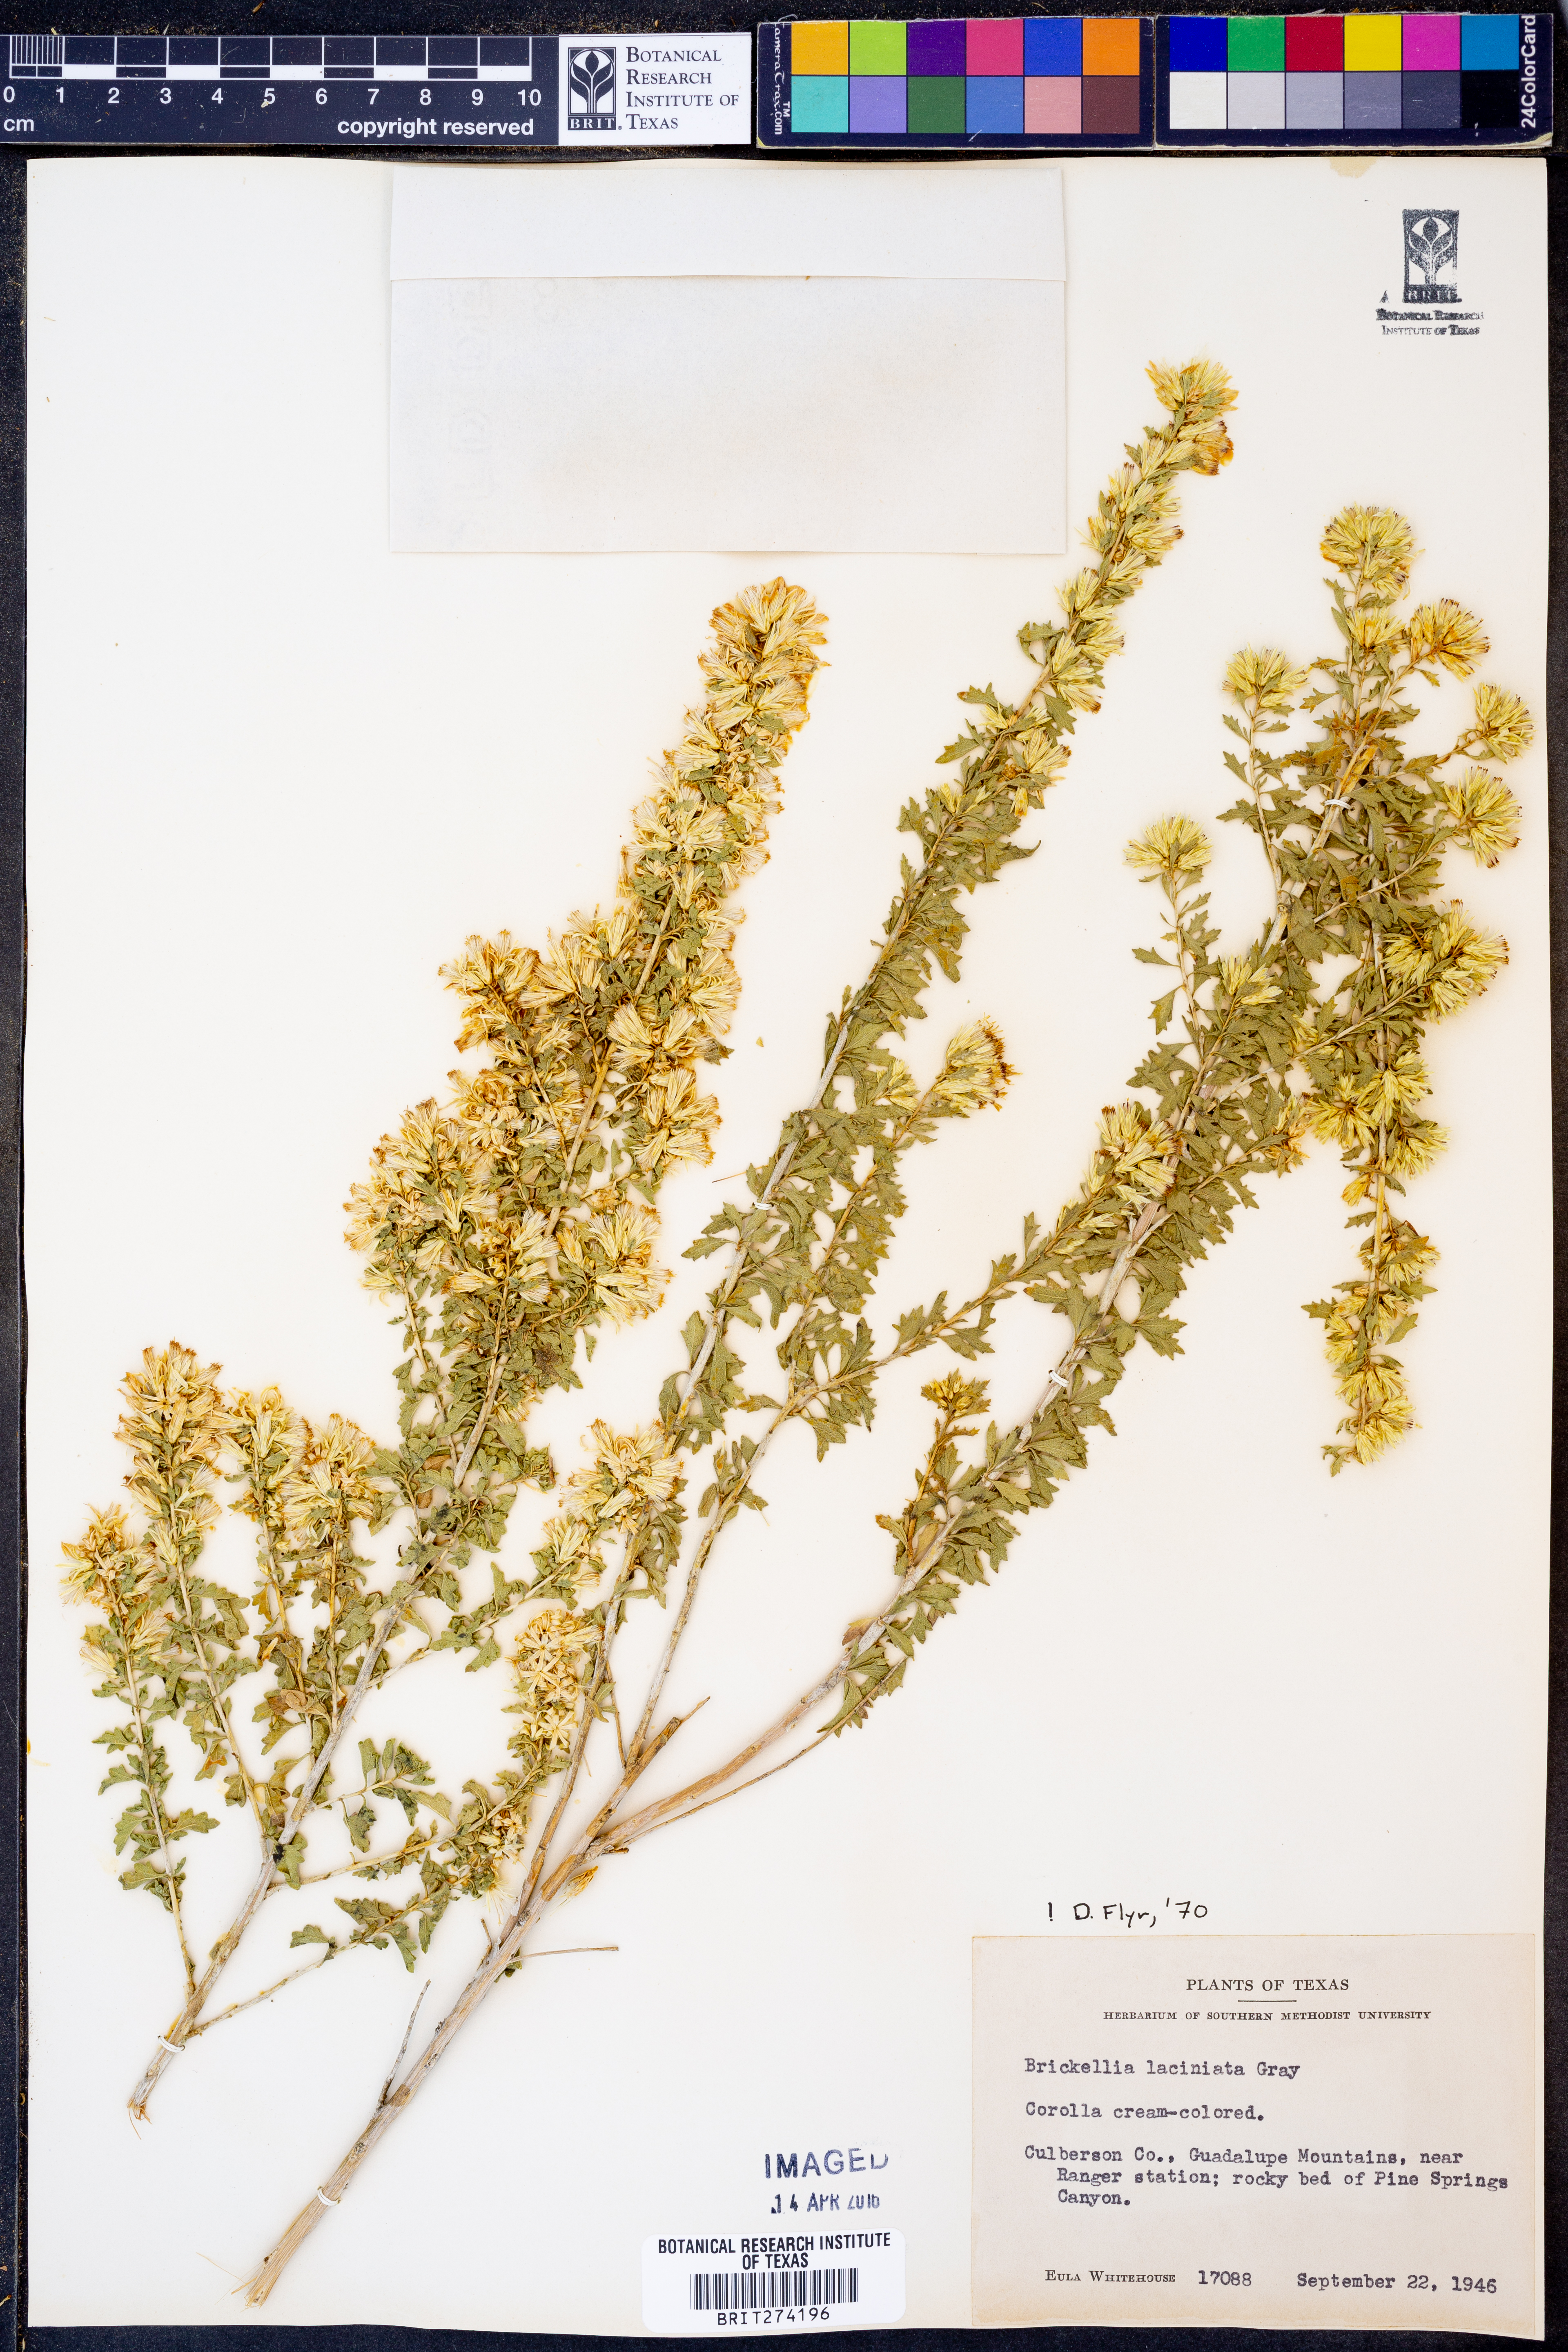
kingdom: Plantae
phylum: Tracheophyta
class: Magnoliopsida
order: Asterales
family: Asteraceae
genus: Brickellia
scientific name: Brickellia laciniata
